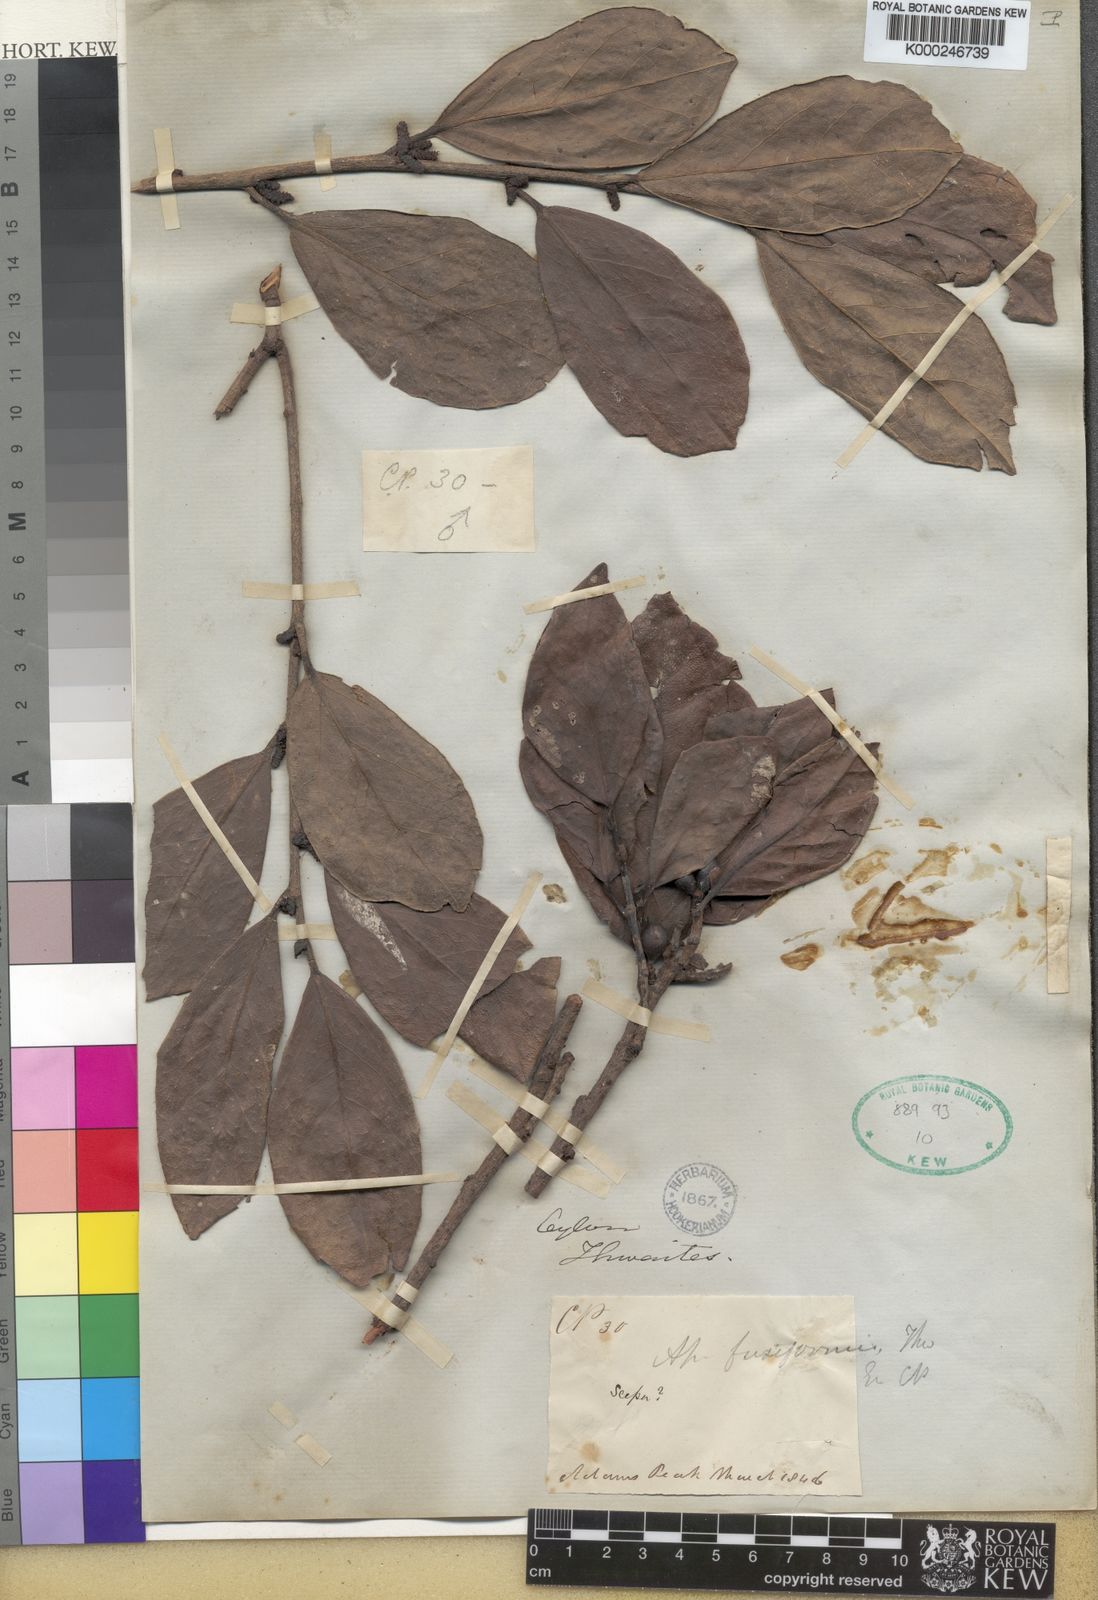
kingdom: Plantae
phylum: Tracheophyta
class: Magnoliopsida
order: Malpighiales
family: Phyllanthaceae
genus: Aporosa
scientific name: Aporosa fusiformis
